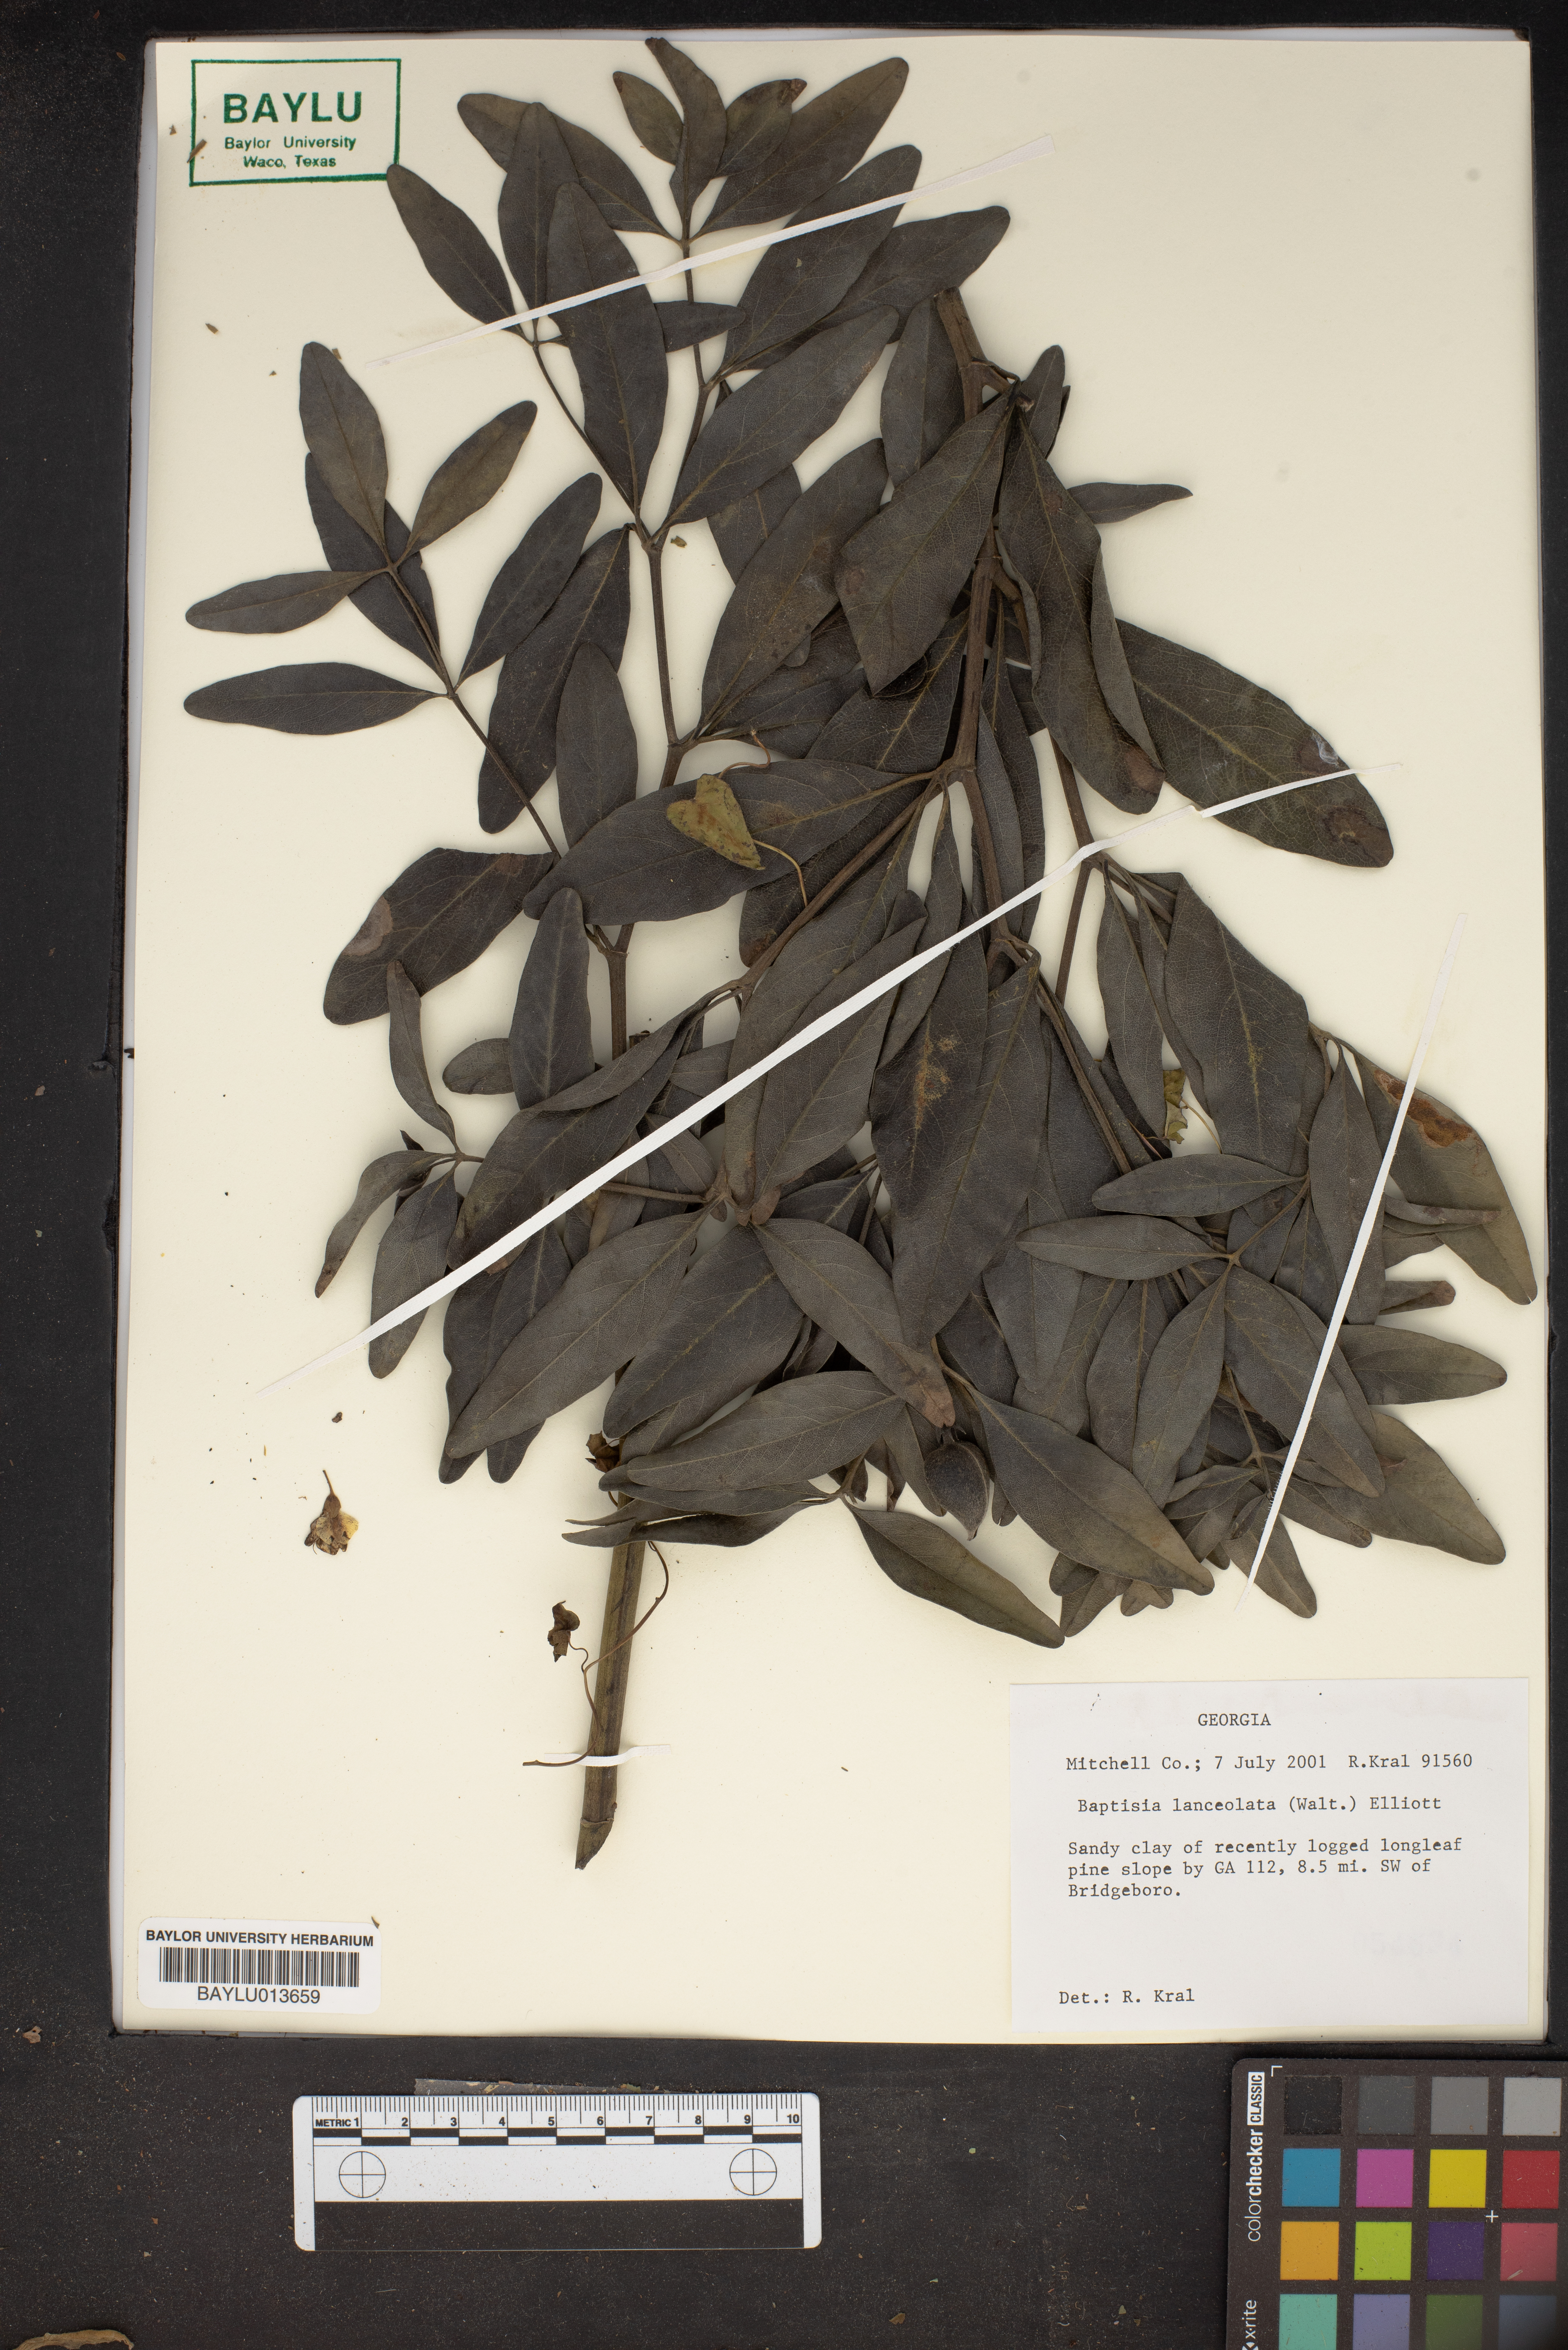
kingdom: Plantae
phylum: Tracheophyta
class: Magnoliopsida
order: Fabales
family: Fabaceae
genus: Baptisia
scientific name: Baptisia lanceolata
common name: Gopherweed
